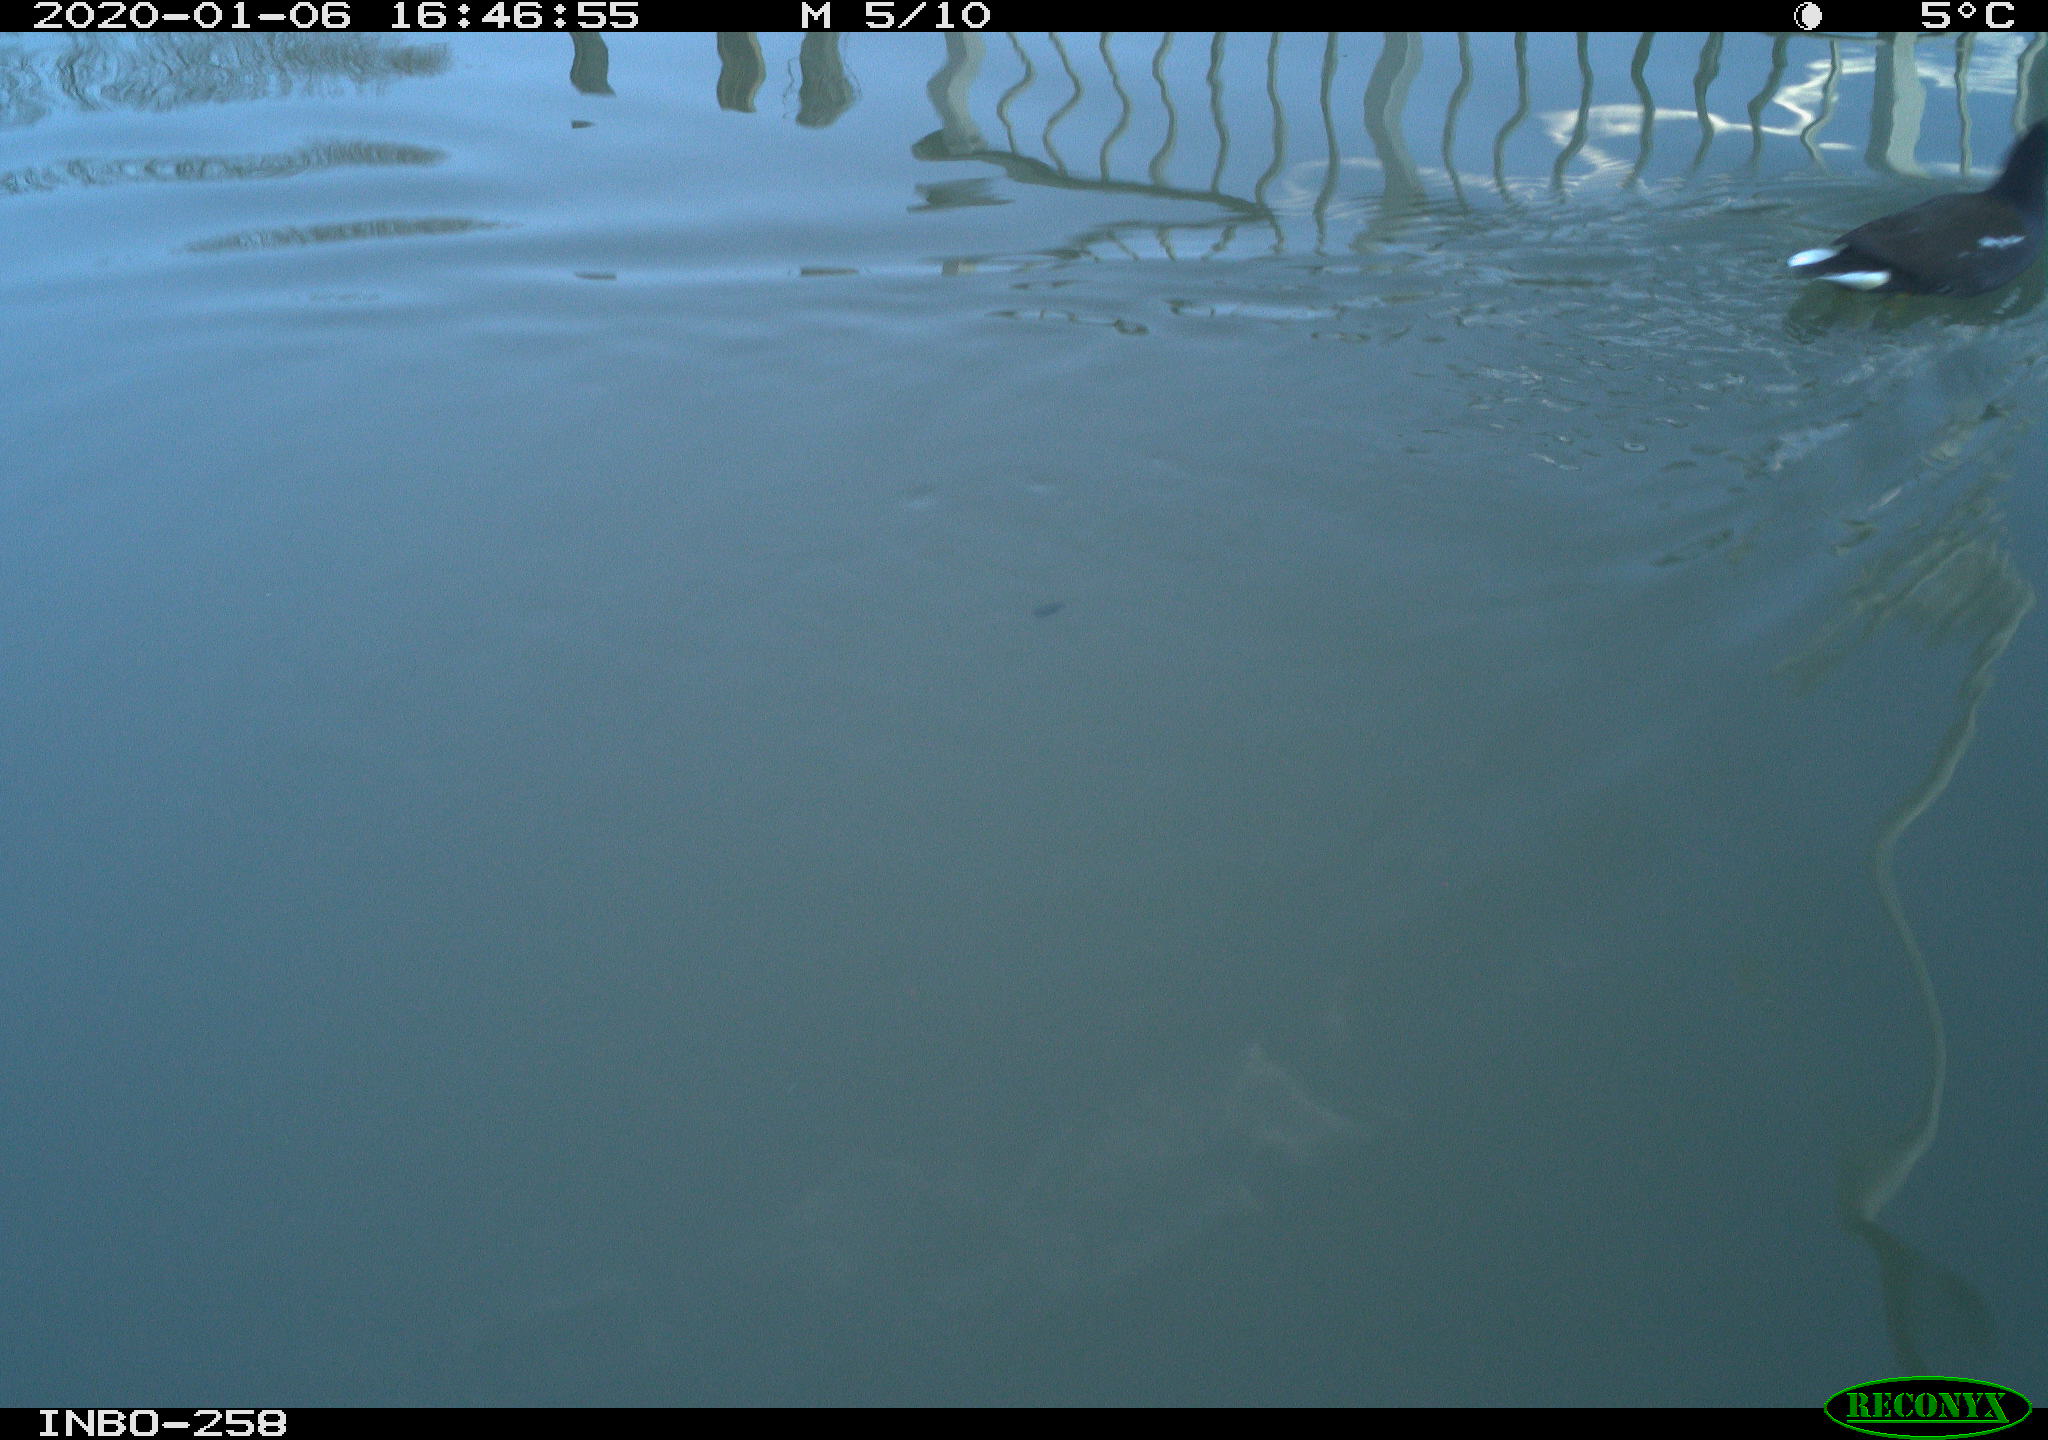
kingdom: Animalia
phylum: Chordata
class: Aves
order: Gruiformes
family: Rallidae
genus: Gallinula
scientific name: Gallinula chloropus
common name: Common moorhen
